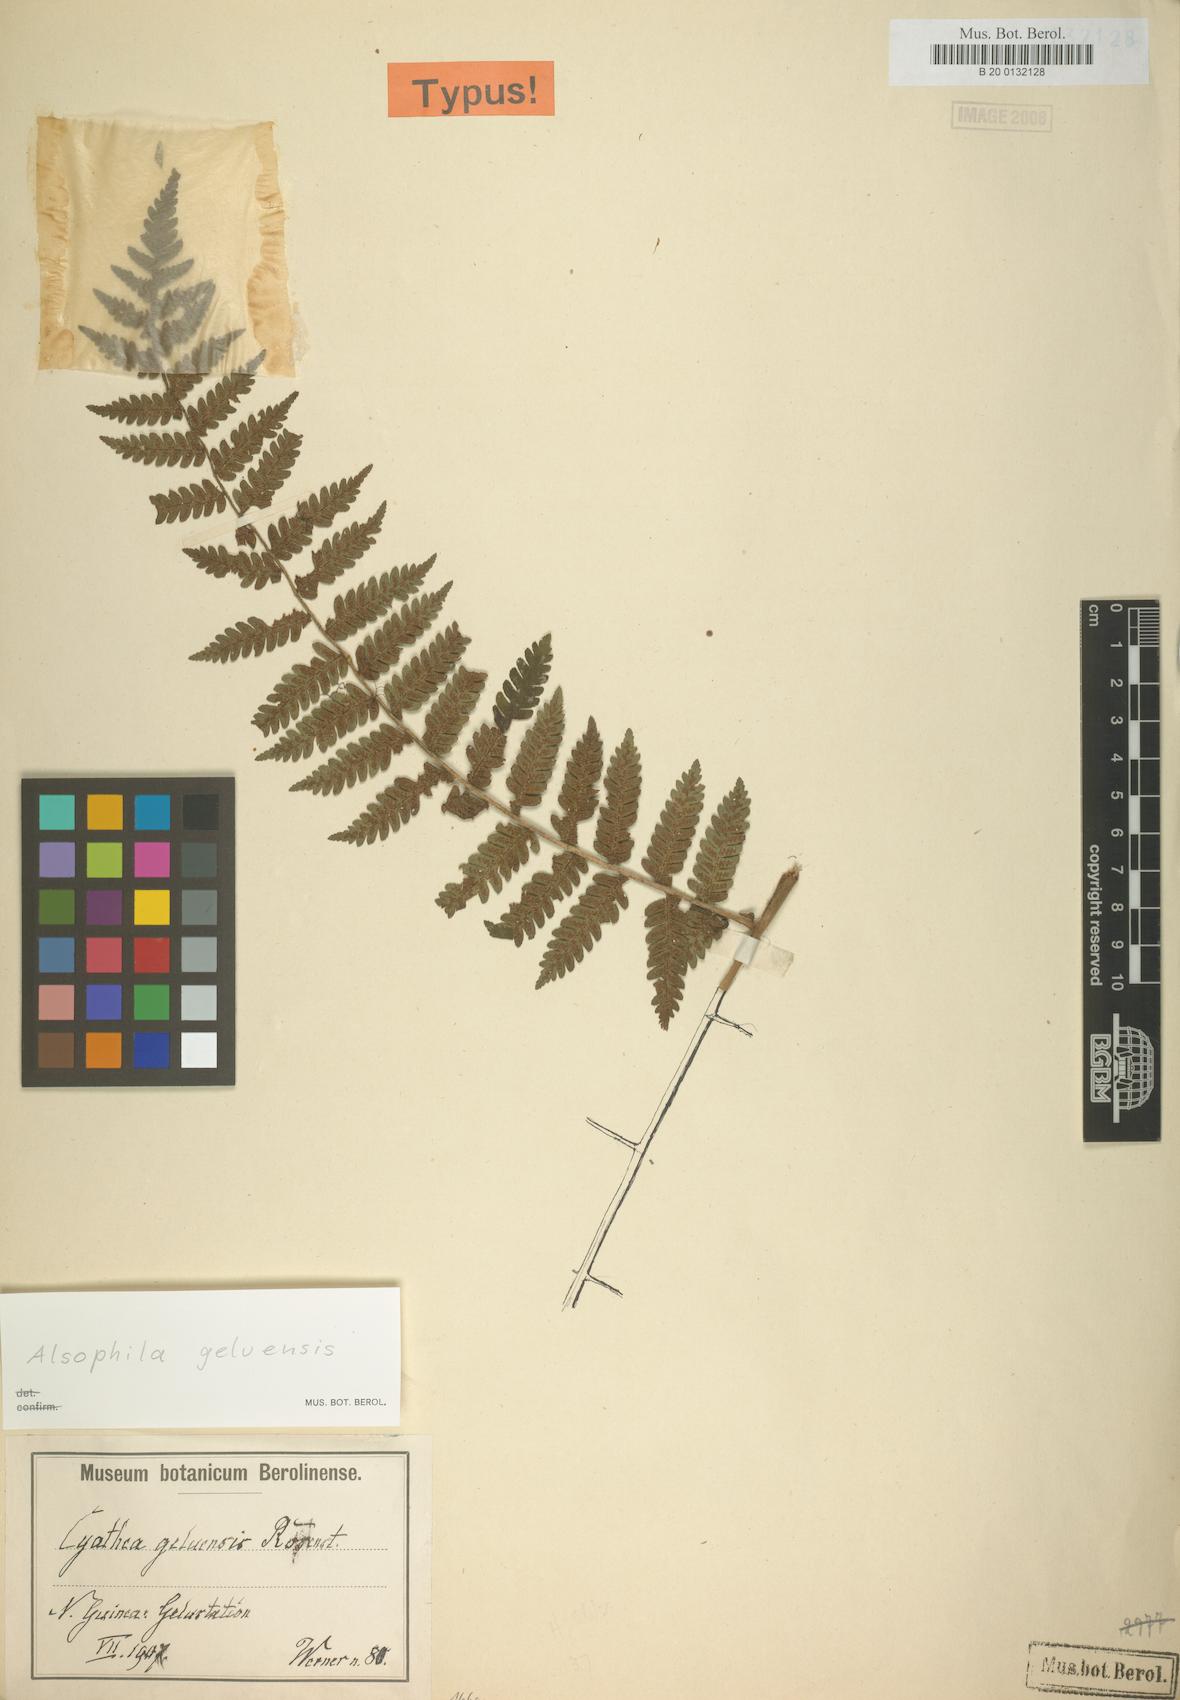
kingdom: Plantae
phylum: Tracheophyta
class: Polypodiopsida
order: Cyatheales
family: Cyatheaceae
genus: Alsophila
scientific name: Alsophila geluensis
